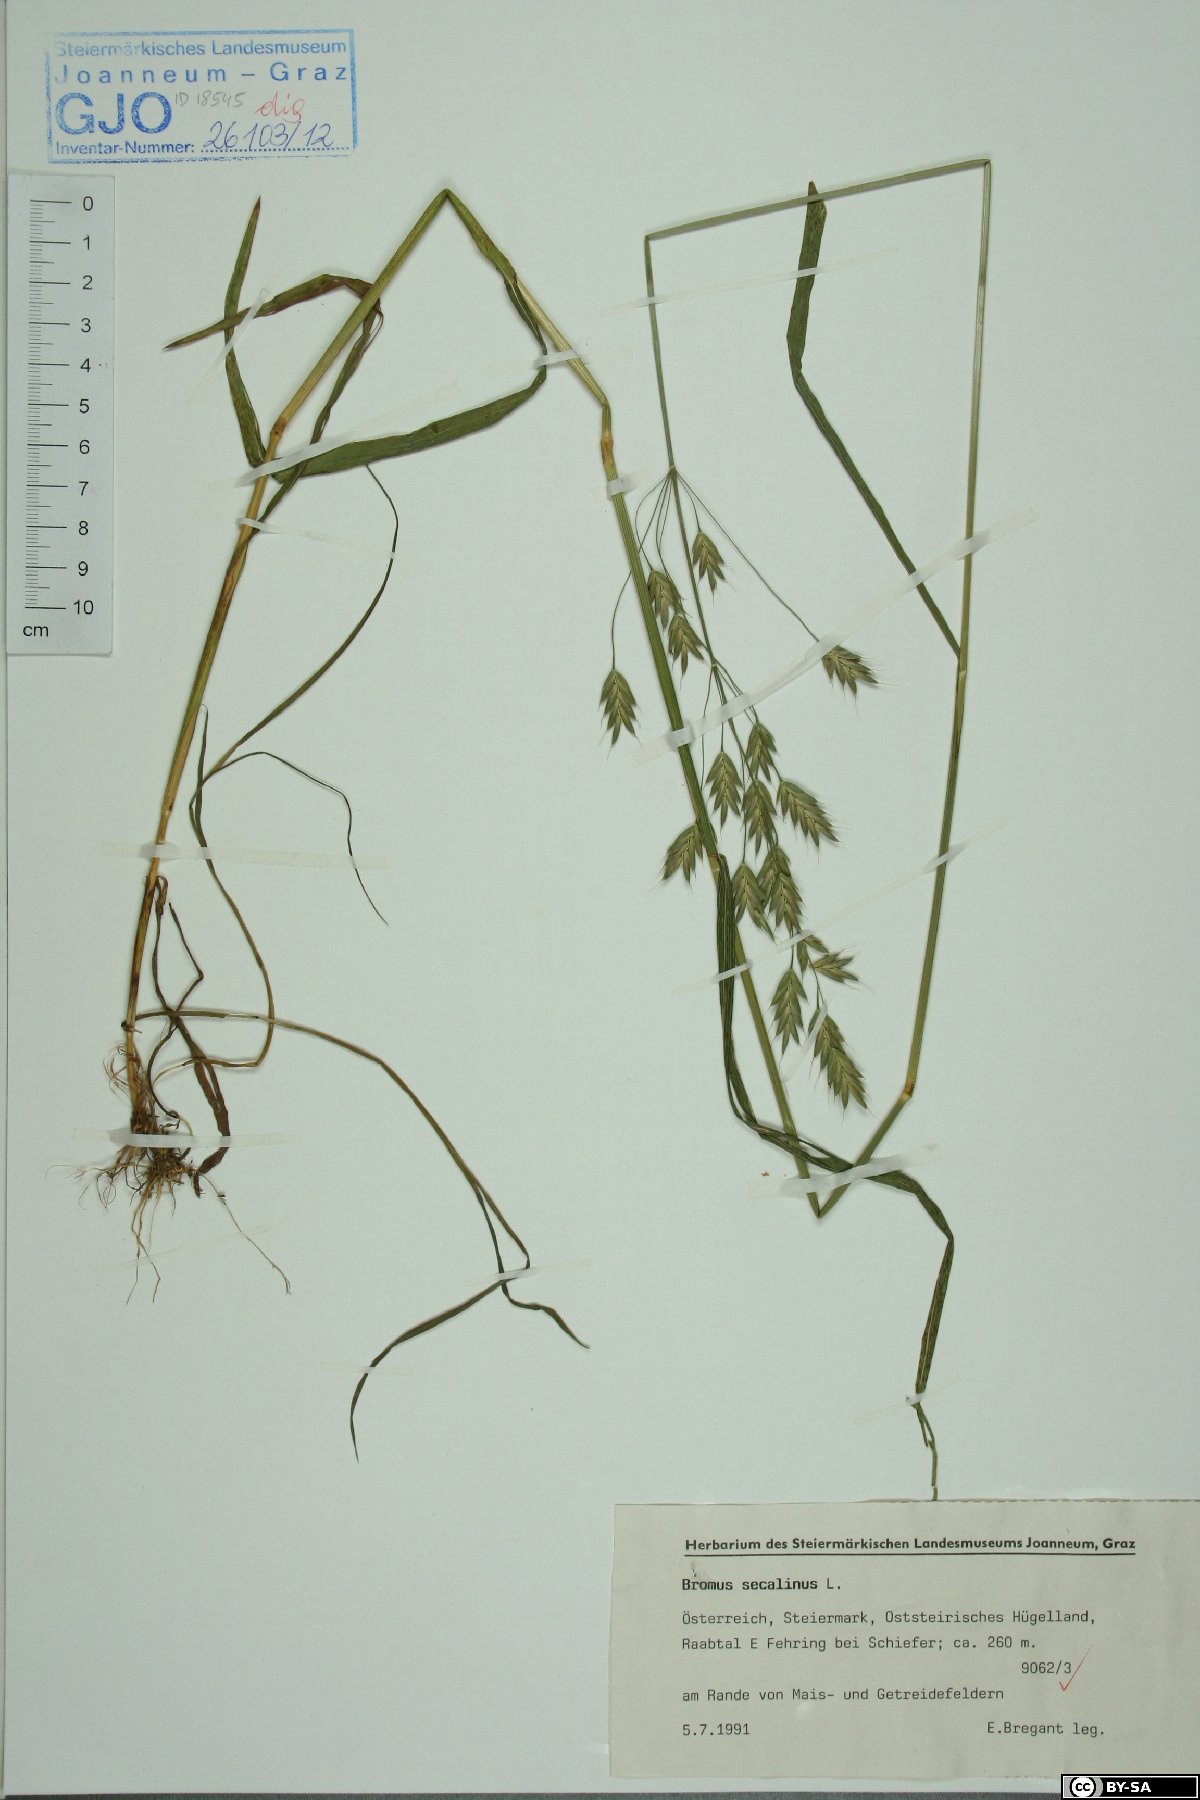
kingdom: Plantae
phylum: Tracheophyta
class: Liliopsida
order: Poales
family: Poaceae
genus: Bromus
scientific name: Bromus secalinus
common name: Rye brome
